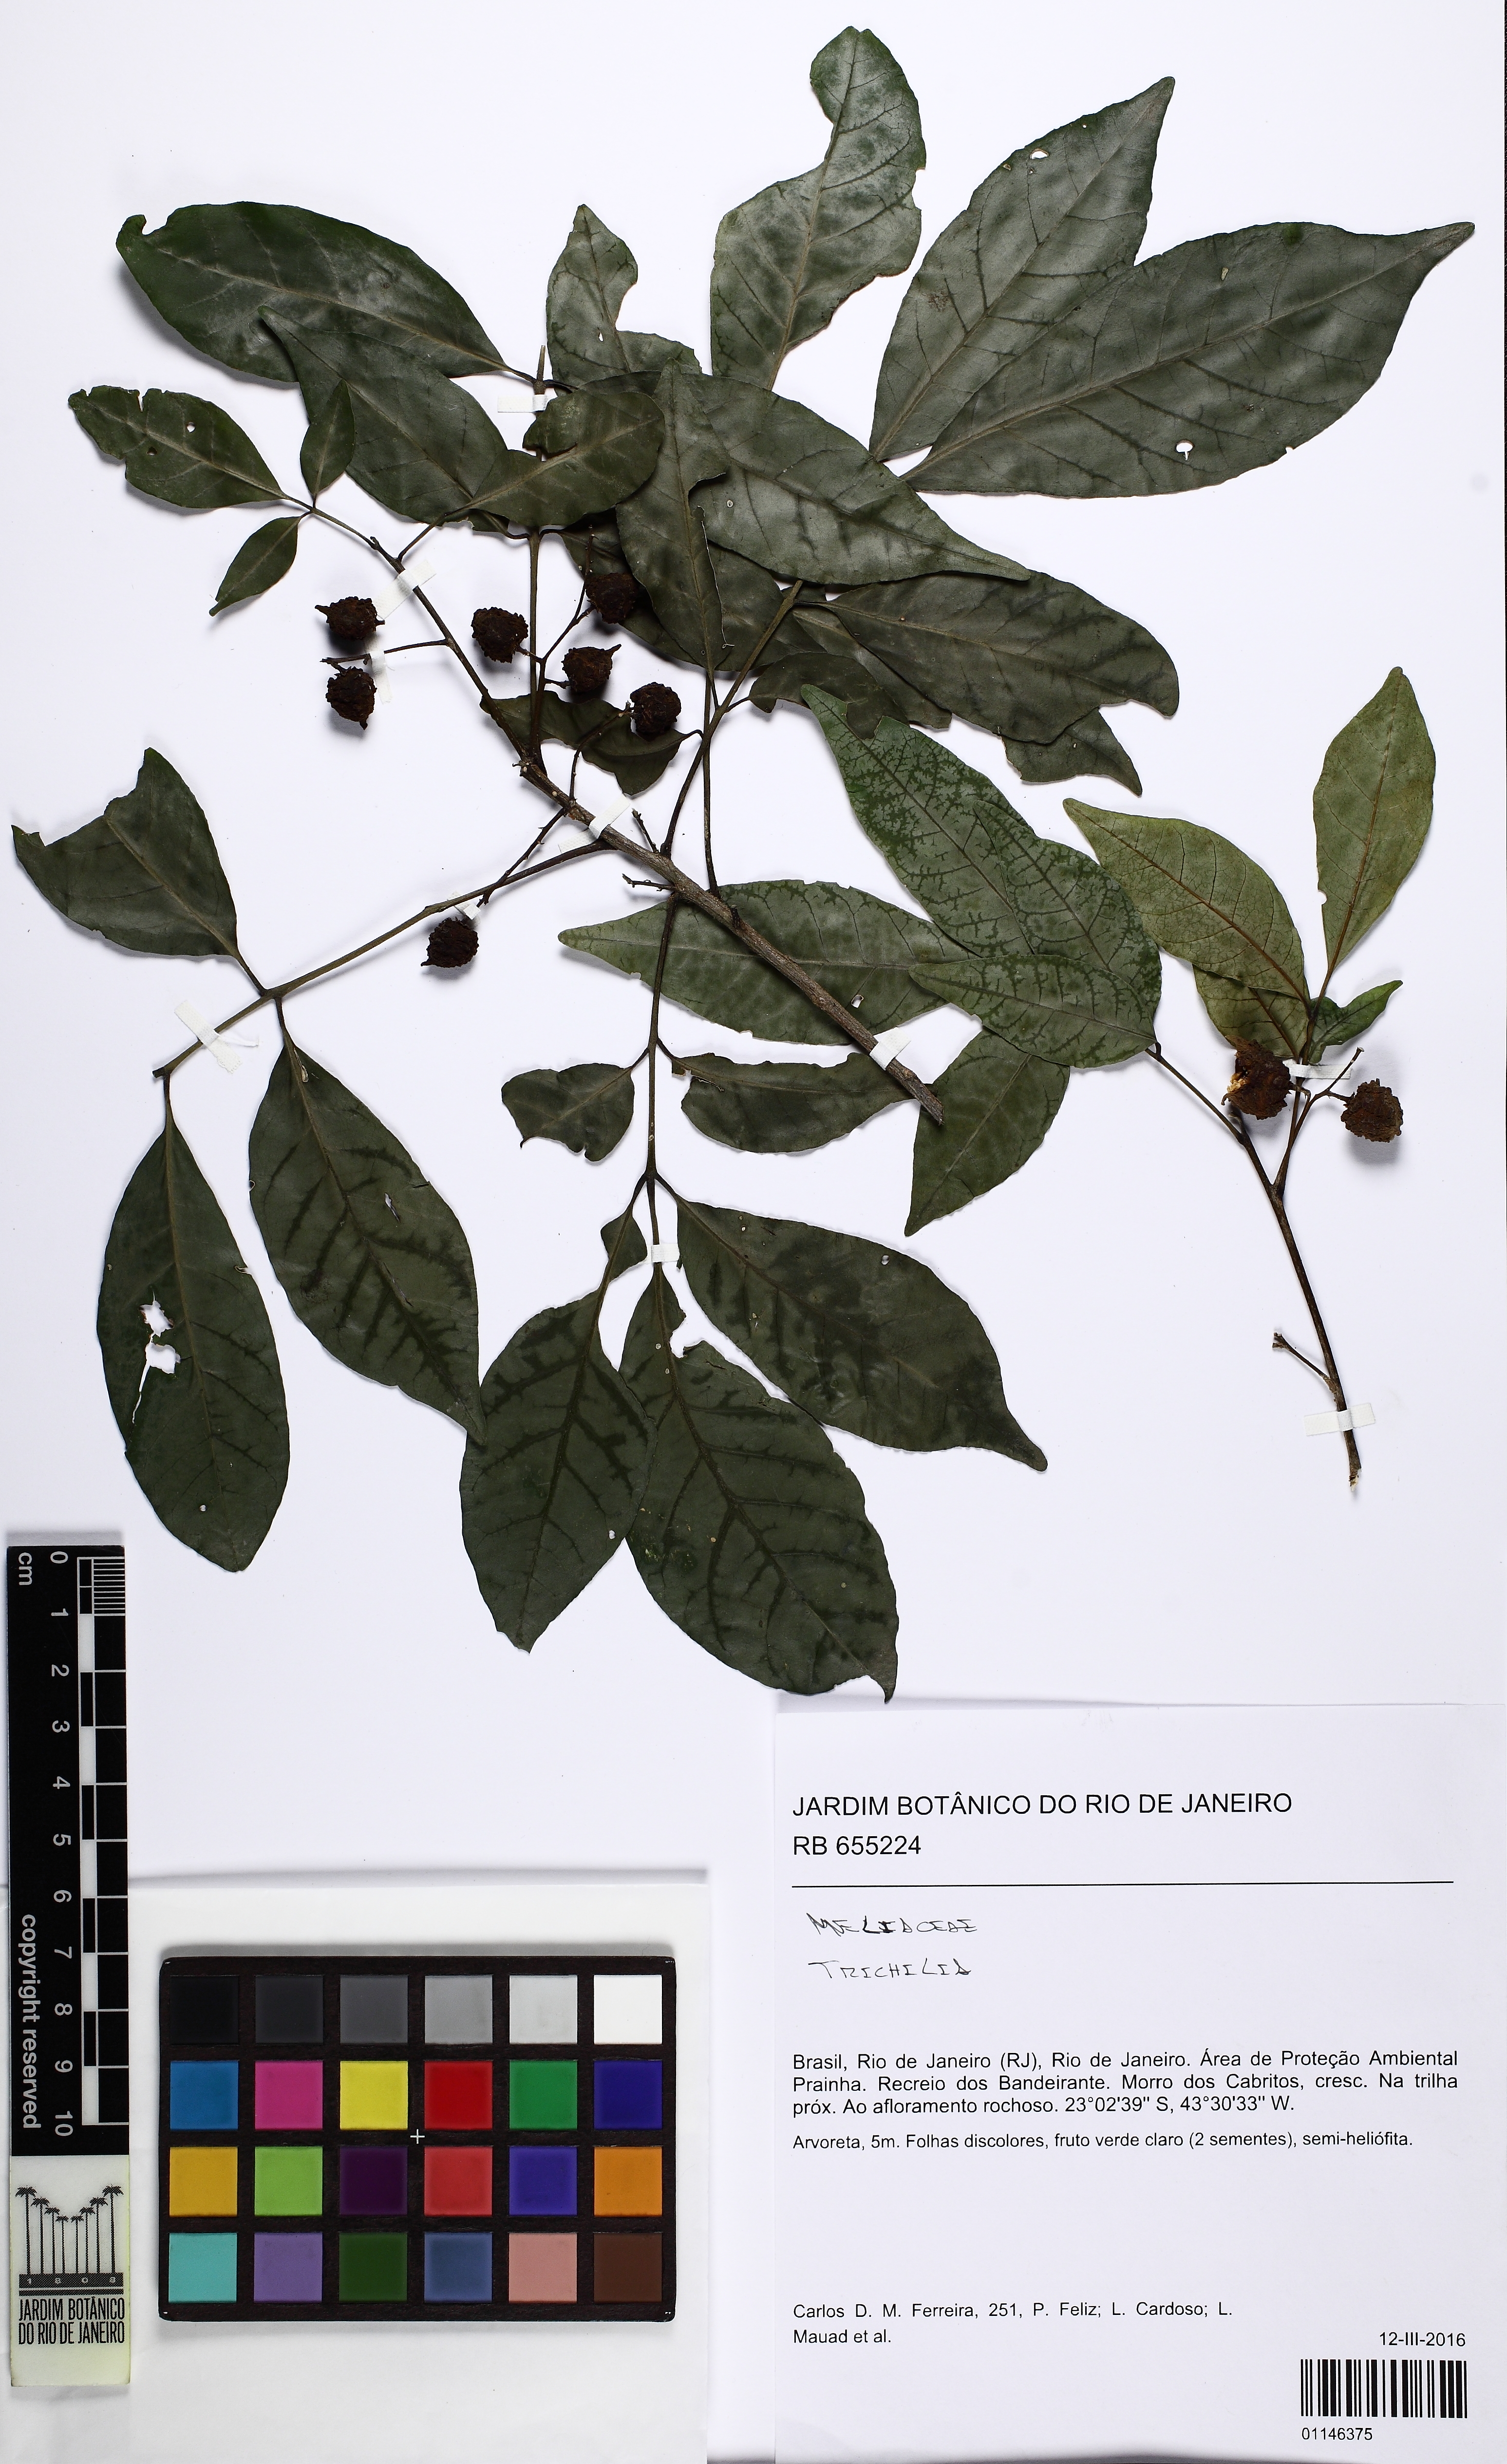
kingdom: Plantae
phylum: Tracheophyta
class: Magnoliopsida
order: Sapindales
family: Meliaceae
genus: Trichilia
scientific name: Trichilia
